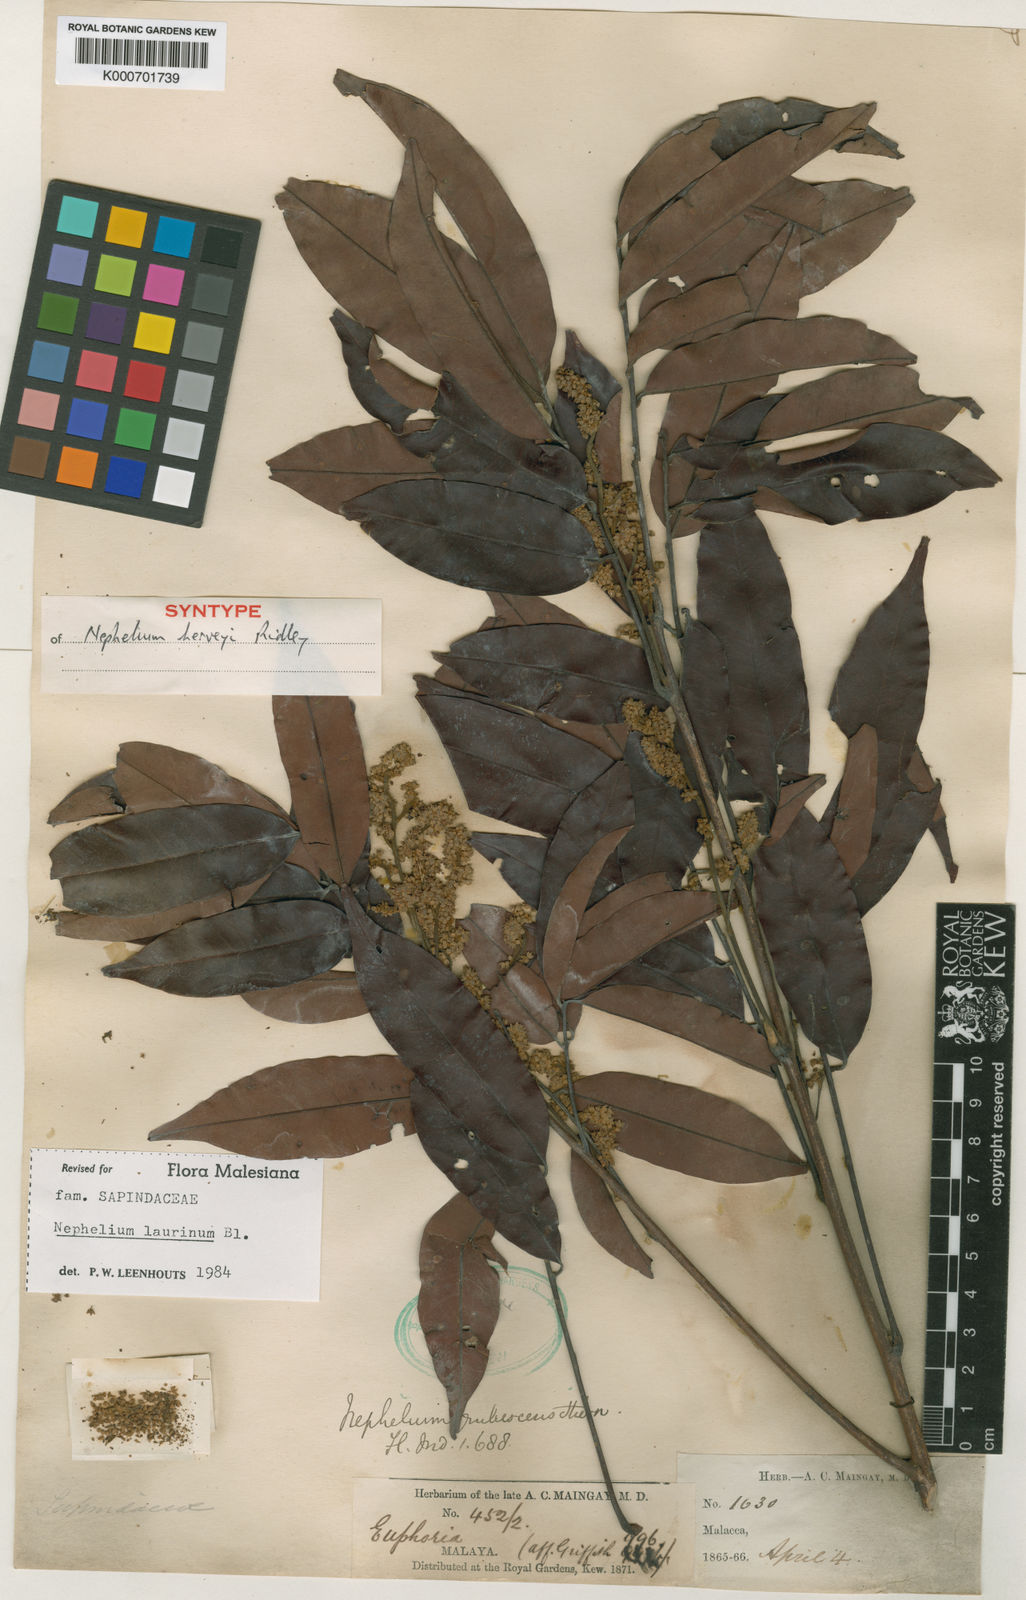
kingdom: Plantae
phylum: Tracheophyta
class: Magnoliopsida
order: Sapindales
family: Sapindaceae
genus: Nephelium
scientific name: Nephelium laurinum
